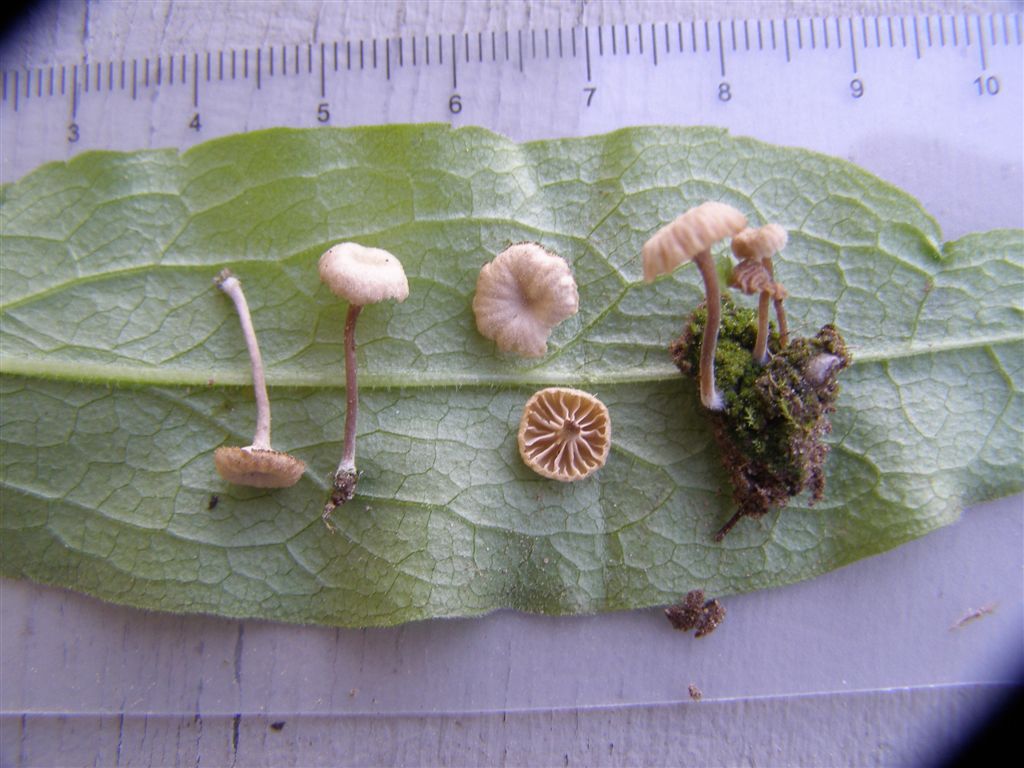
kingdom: Fungi
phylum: Basidiomycota
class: Agaricomycetes
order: Agaricales
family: Hygrophoraceae
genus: Lichenomphalia
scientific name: Lichenomphalia velutina
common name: dunet lavhat
